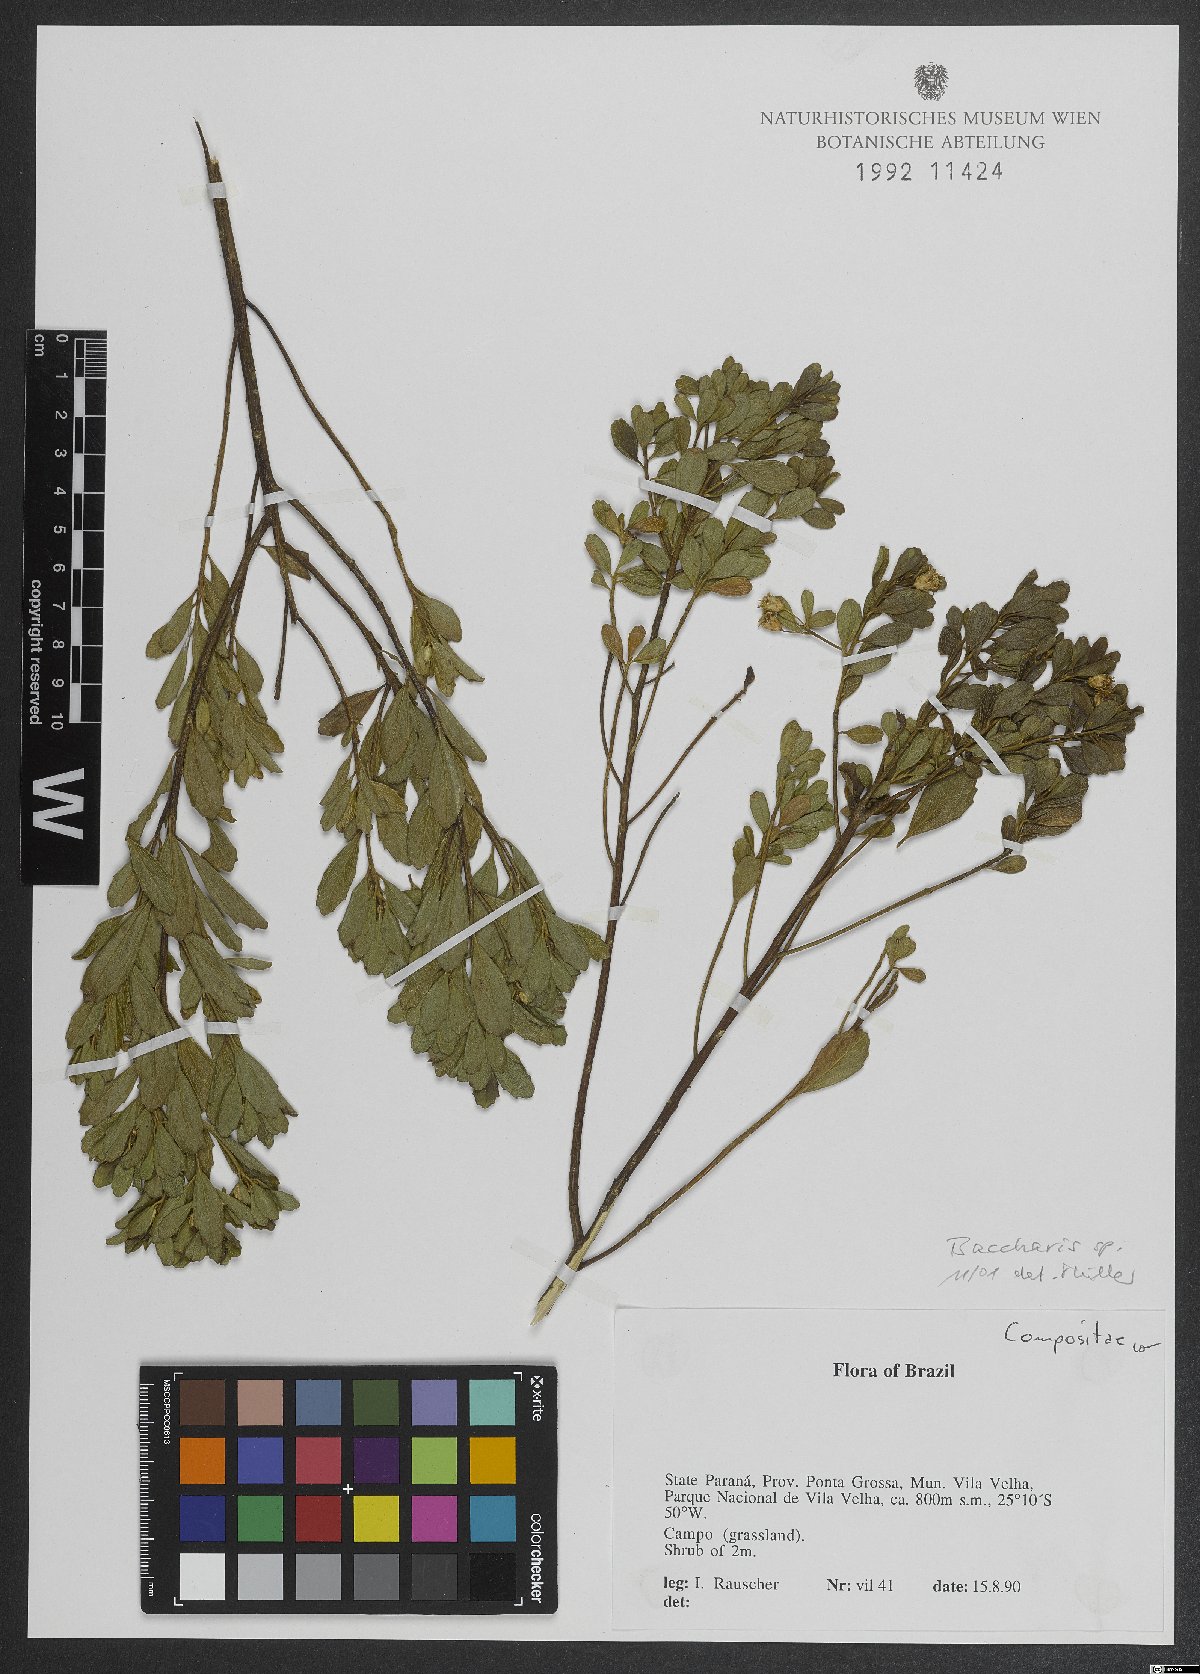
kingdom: Plantae
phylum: Tracheophyta
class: Magnoliopsida
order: Asterales
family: Asteraceae
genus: Baccharis
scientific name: Baccharis
